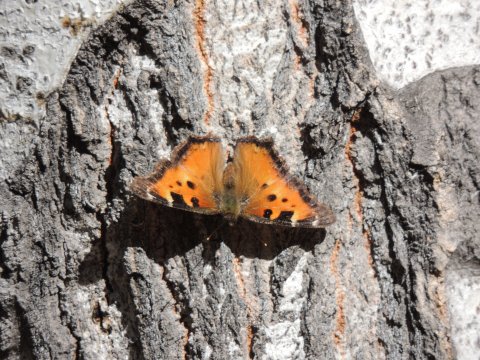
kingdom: Animalia
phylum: Arthropoda
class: Insecta
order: Lepidoptera
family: Nymphalidae
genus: Nymphalis
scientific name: Nymphalis californica
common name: California Tortoiseshell
